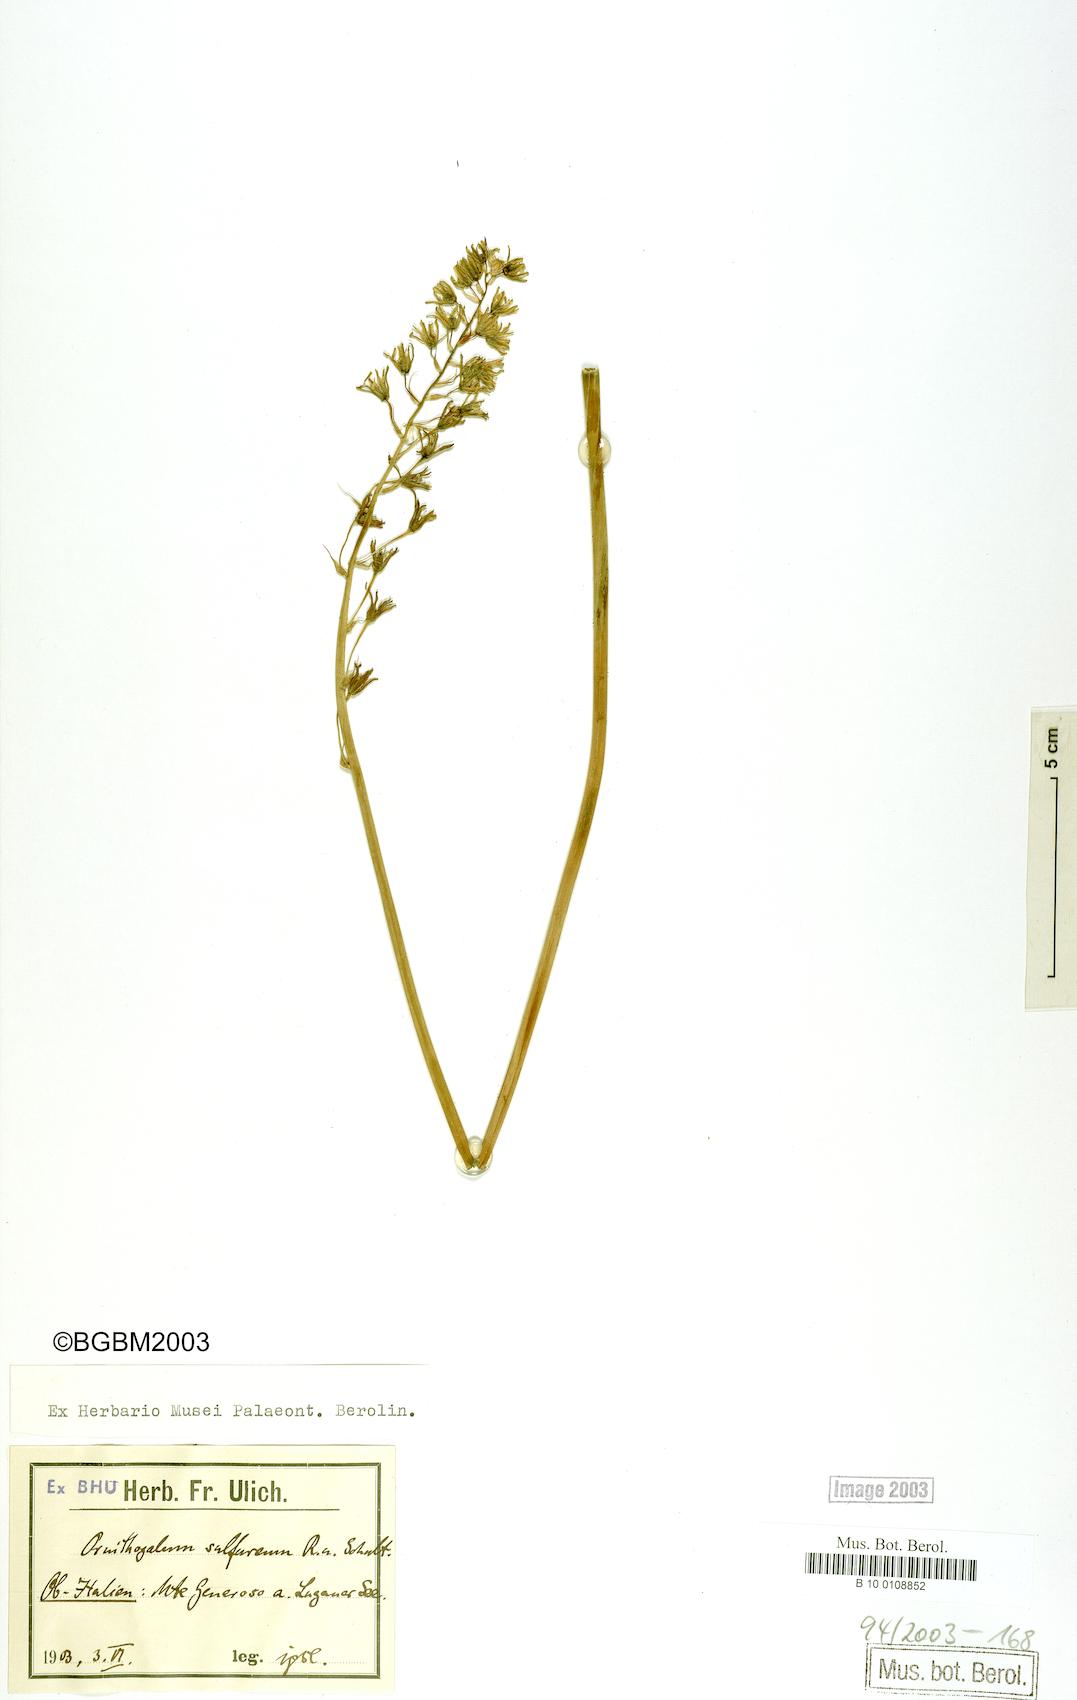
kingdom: Plantae
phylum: Tracheophyta
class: Liliopsida
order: Asparagales
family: Asparagaceae
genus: Ornithogalum
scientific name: Ornithogalum pyrenaicum
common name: Spiked star-of-bethlehem
